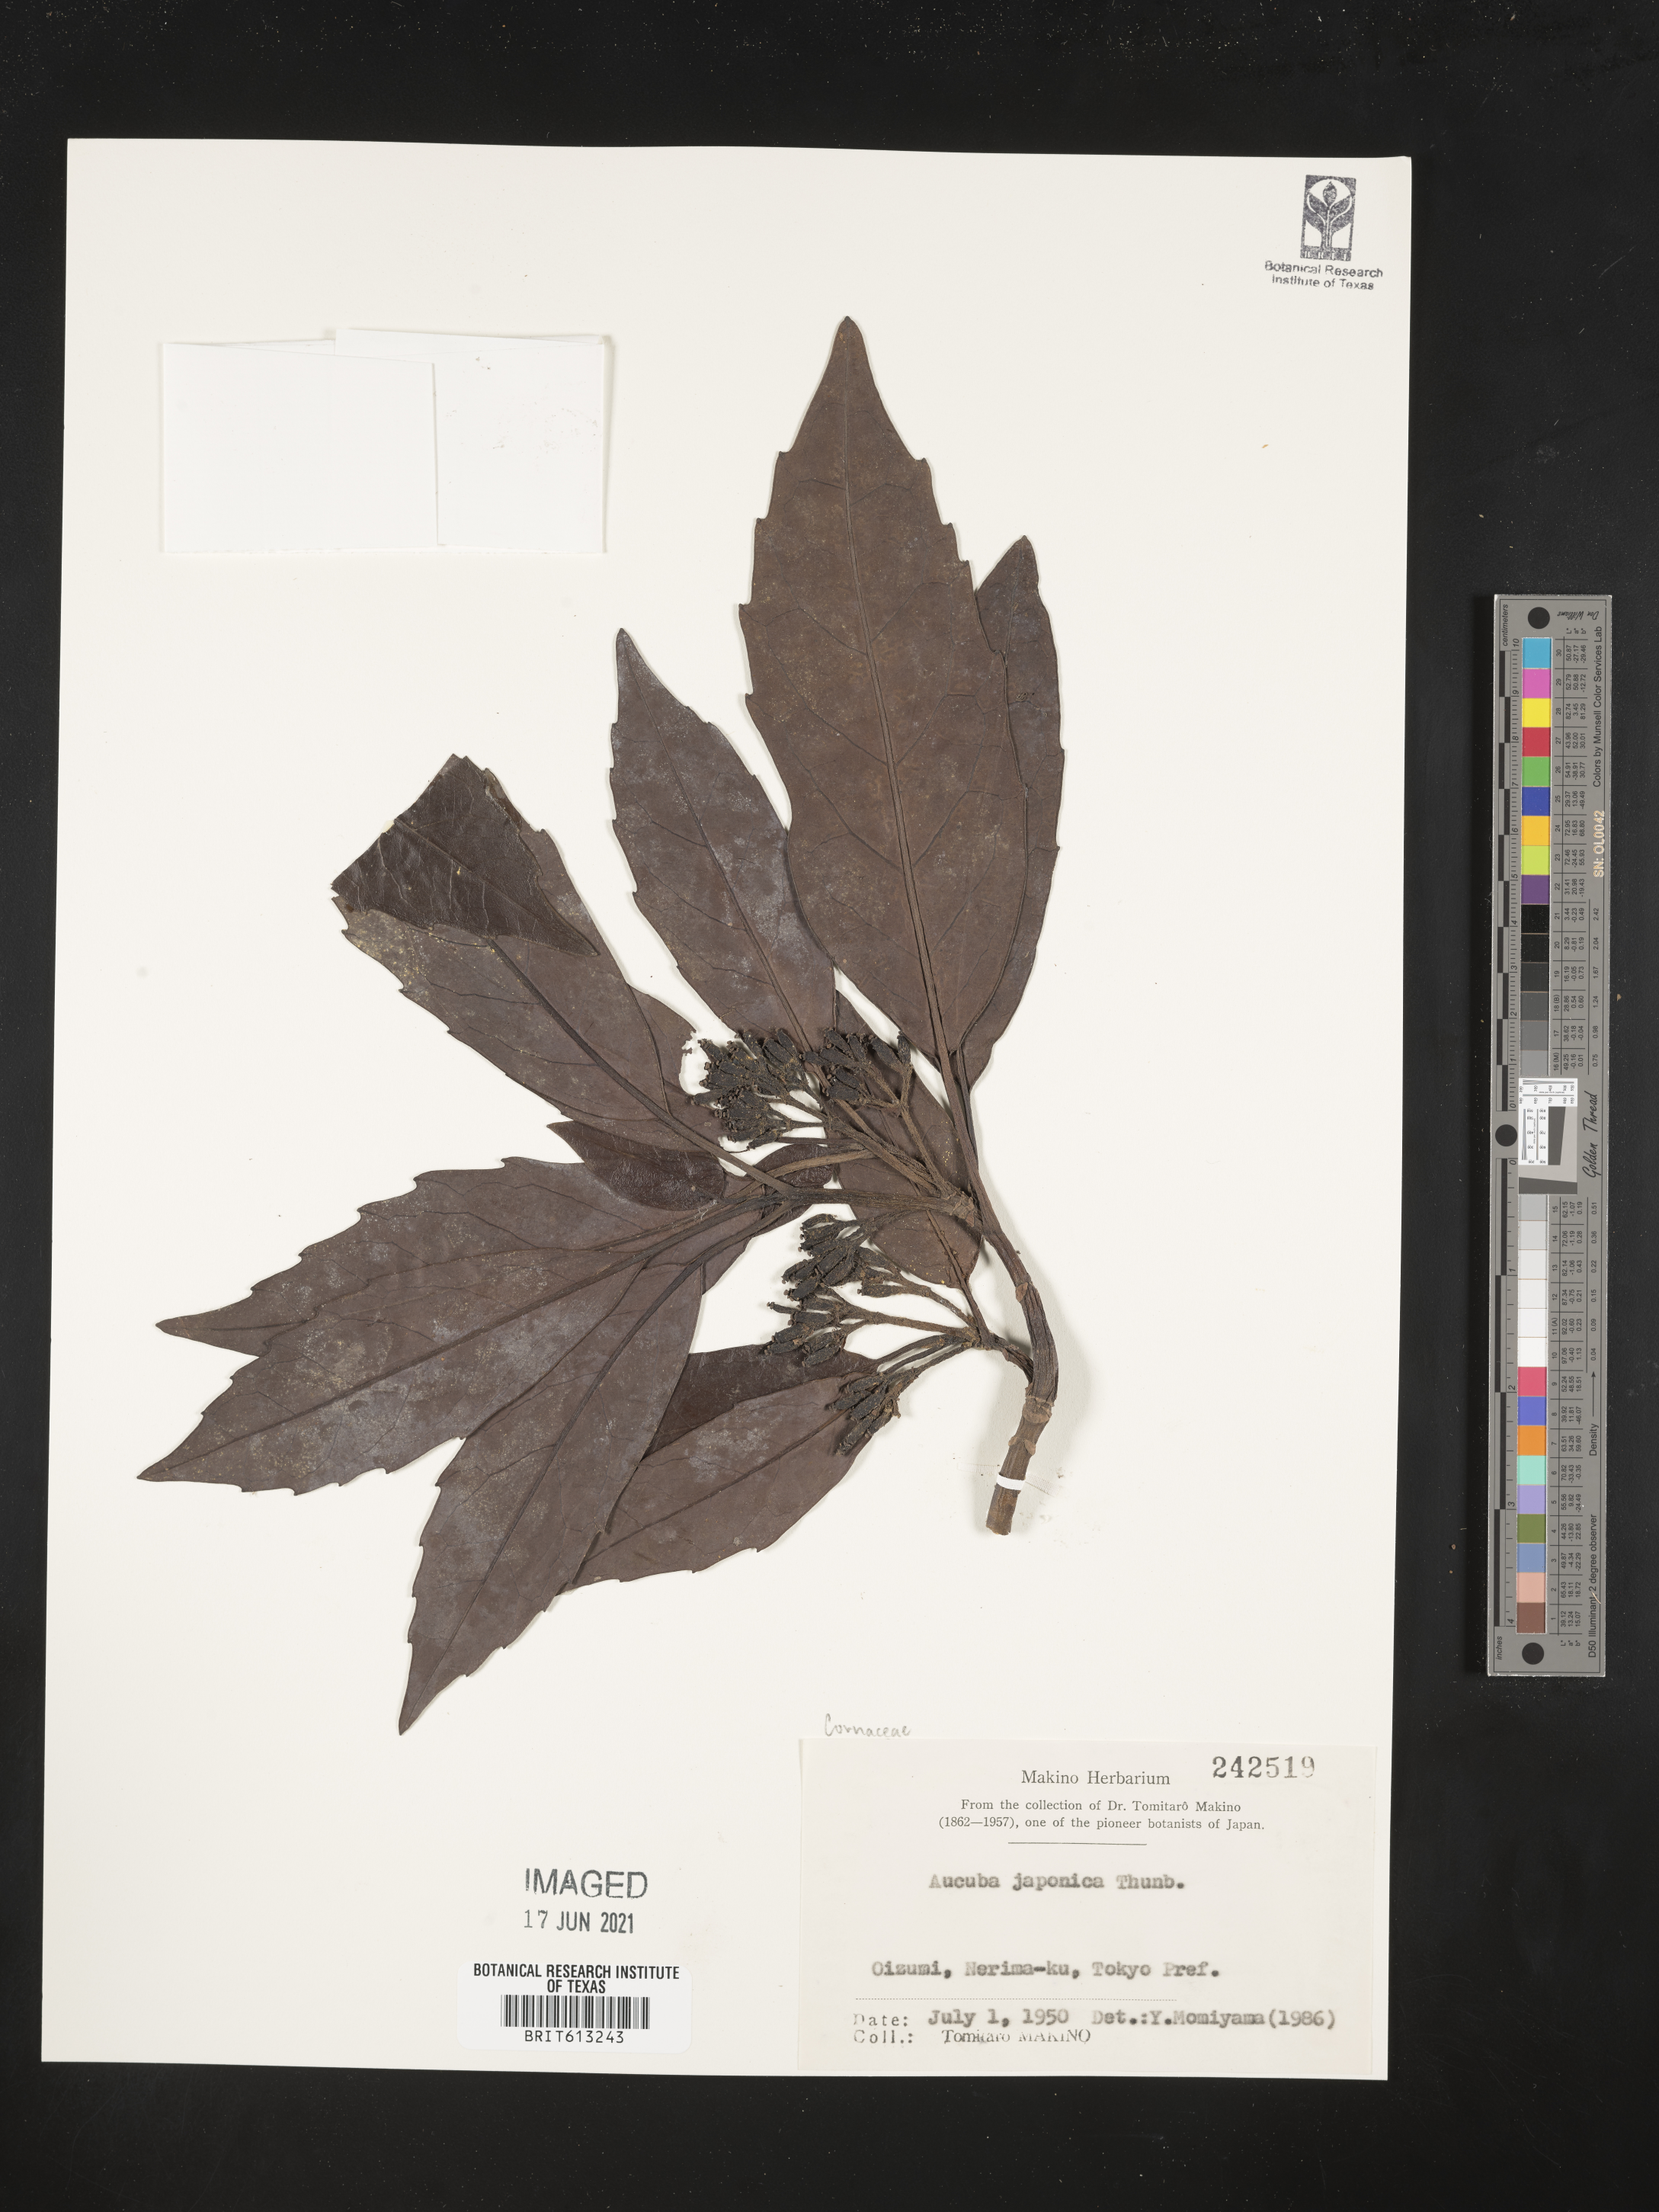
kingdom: Plantae
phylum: Tracheophyta
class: Magnoliopsida
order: Garryales
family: Garryaceae
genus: Aucuba
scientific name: Aucuba japonica
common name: Spotted-laurel
